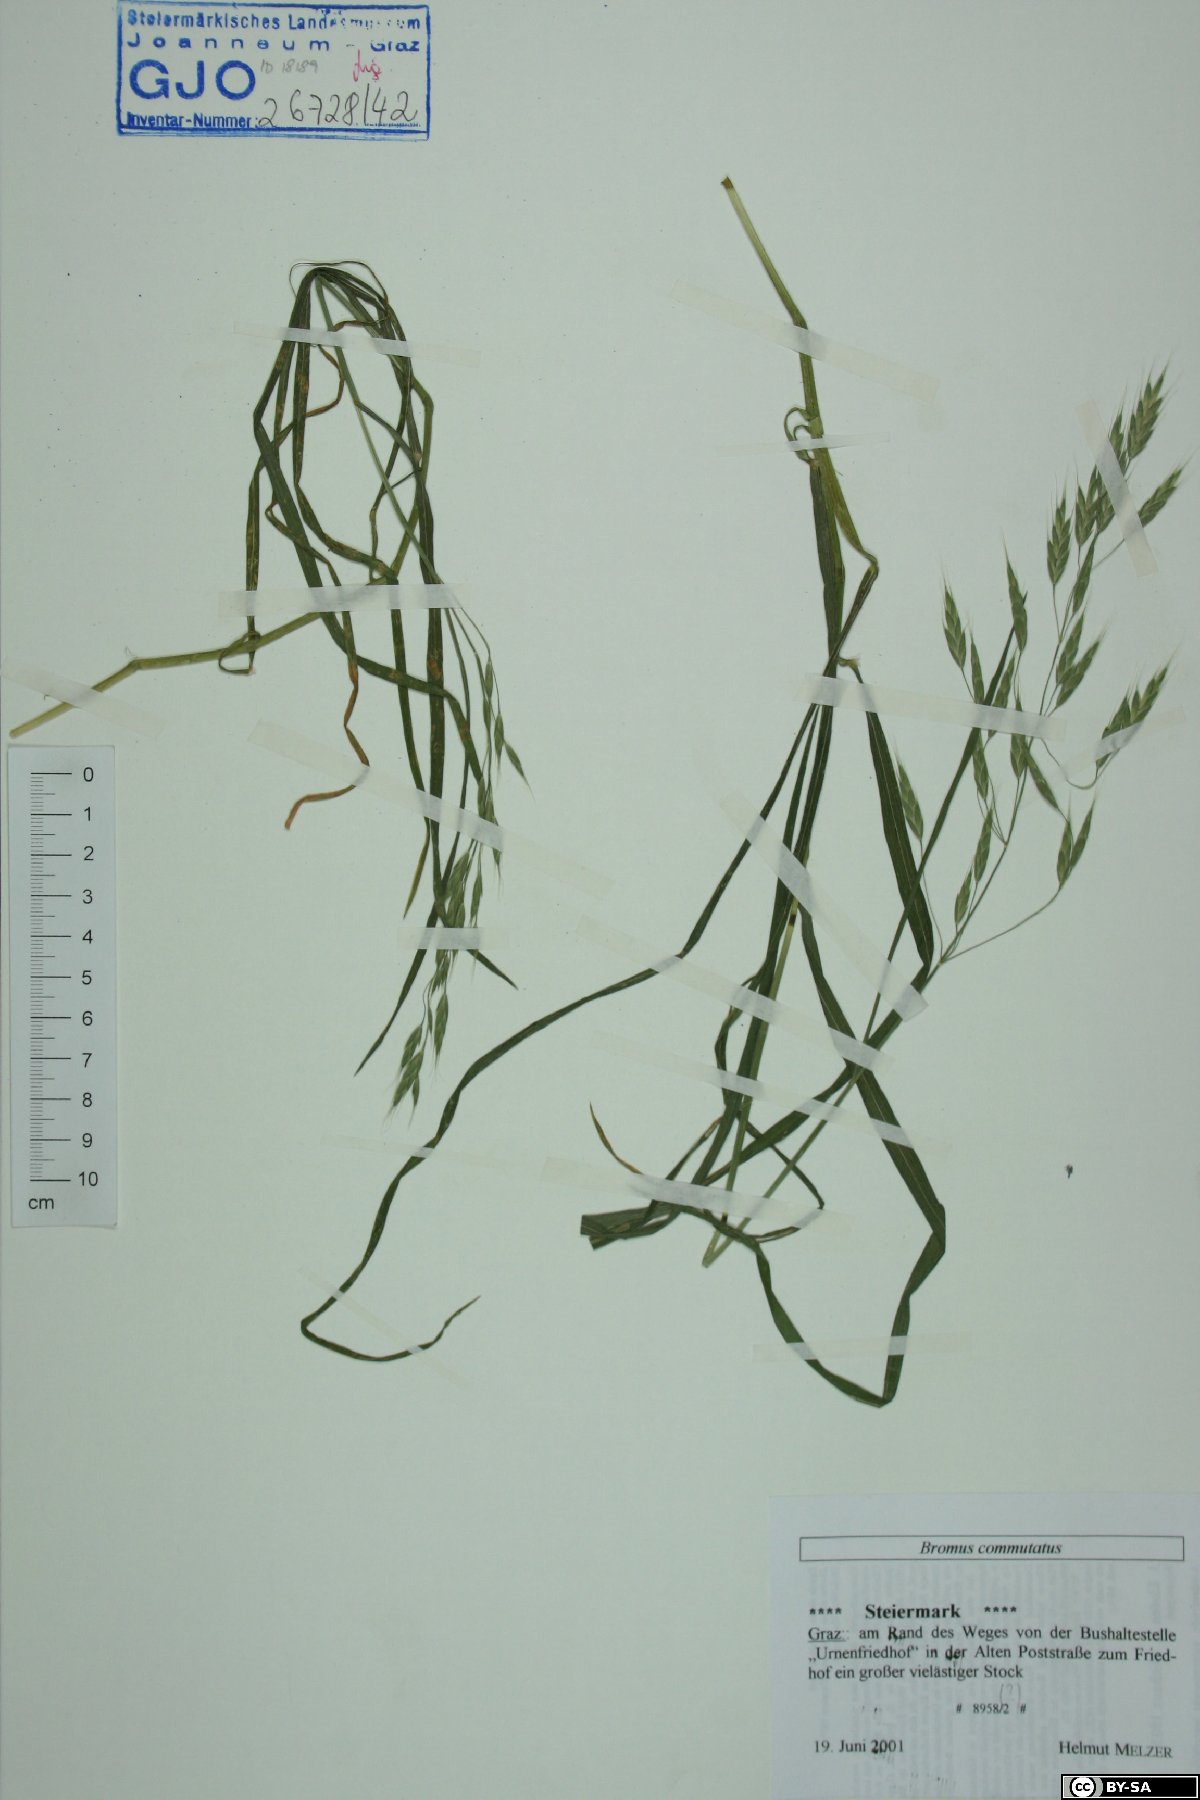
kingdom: Plantae
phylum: Tracheophyta
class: Liliopsida
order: Poales
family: Poaceae
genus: Bromus
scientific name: Bromus commutatus
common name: Meadow brome
